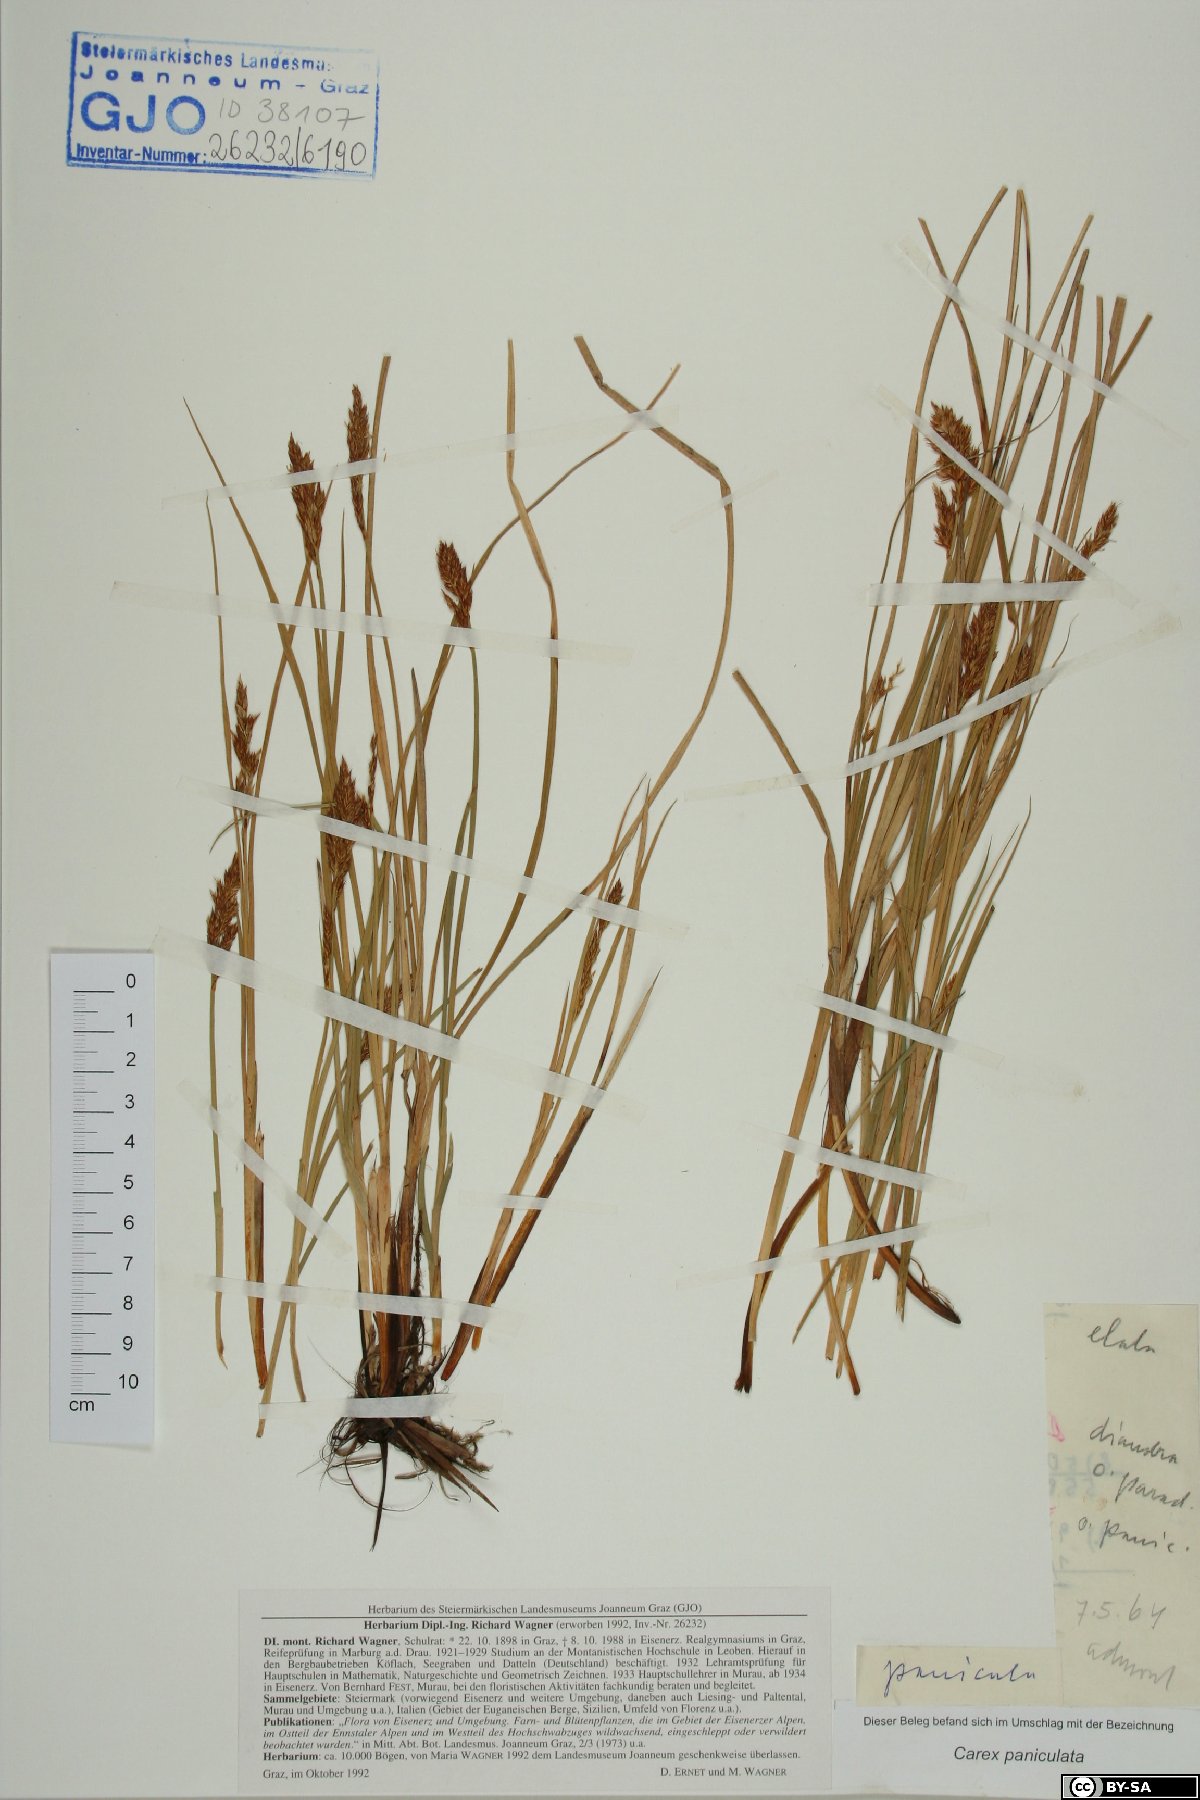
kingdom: Plantae
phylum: Tracheophyta
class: Liliopsida
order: Poales
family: Cyperaceae
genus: Carex
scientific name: Carex paniculata
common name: Greater tussock-sedge
